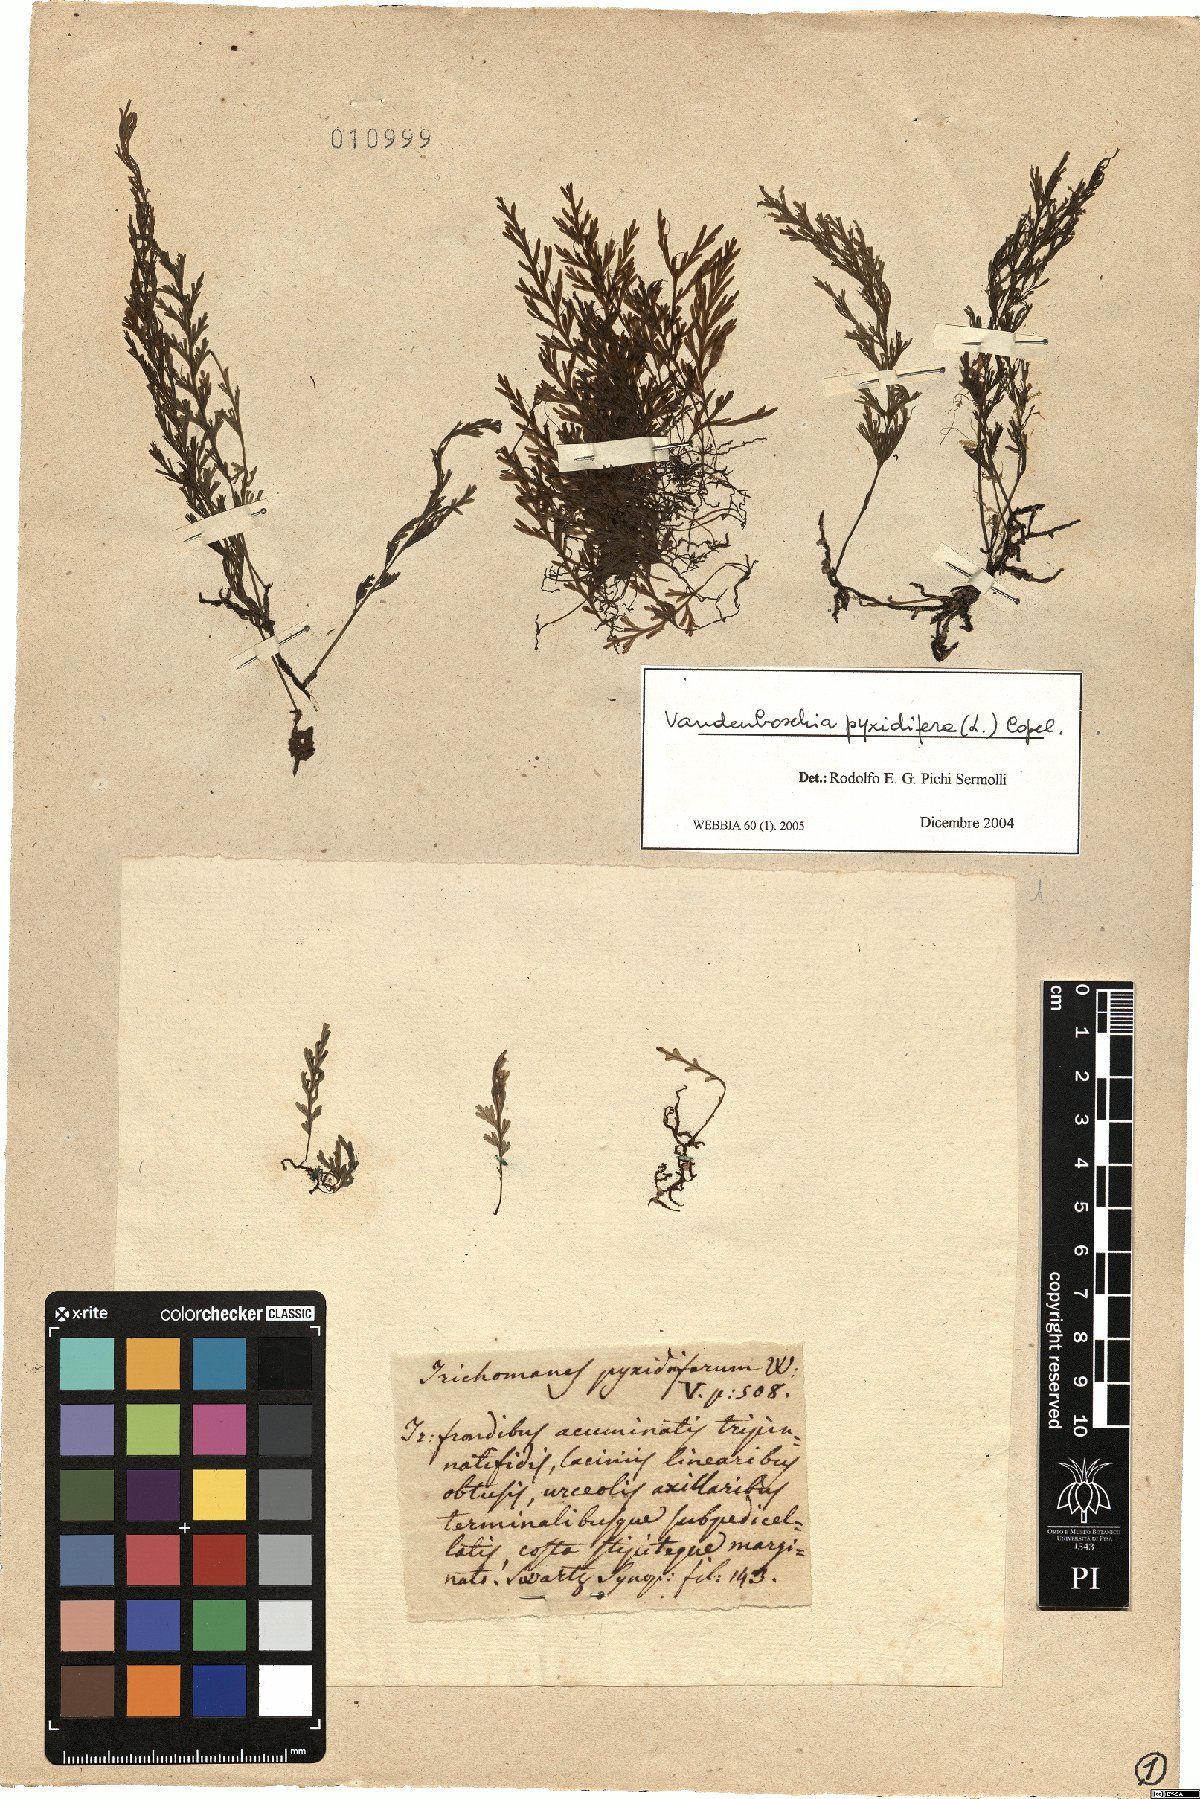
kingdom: Plantae
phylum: Tracheophyta
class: Polypodiopsida
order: Hymenophyllales
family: Hymenophyllaceae
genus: Polyphlebium
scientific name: Polyphlebium pyxidiferum
